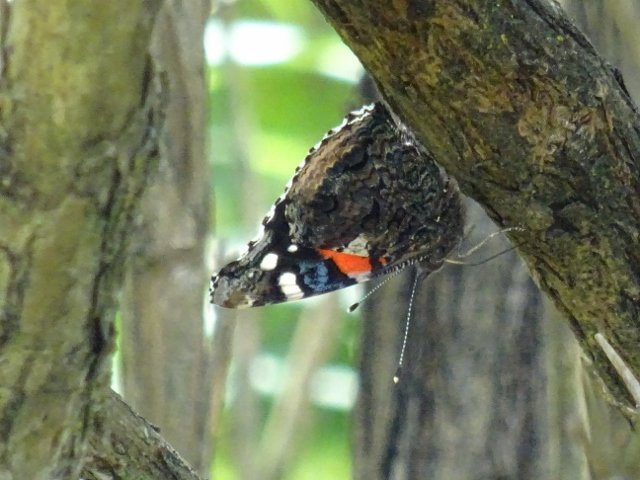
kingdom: Animalia
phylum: Arthropoda
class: Insecta
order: Lepidoptera
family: Nymphalidae
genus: Vanessa
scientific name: Vanessa atalanta
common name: Red Admiral
